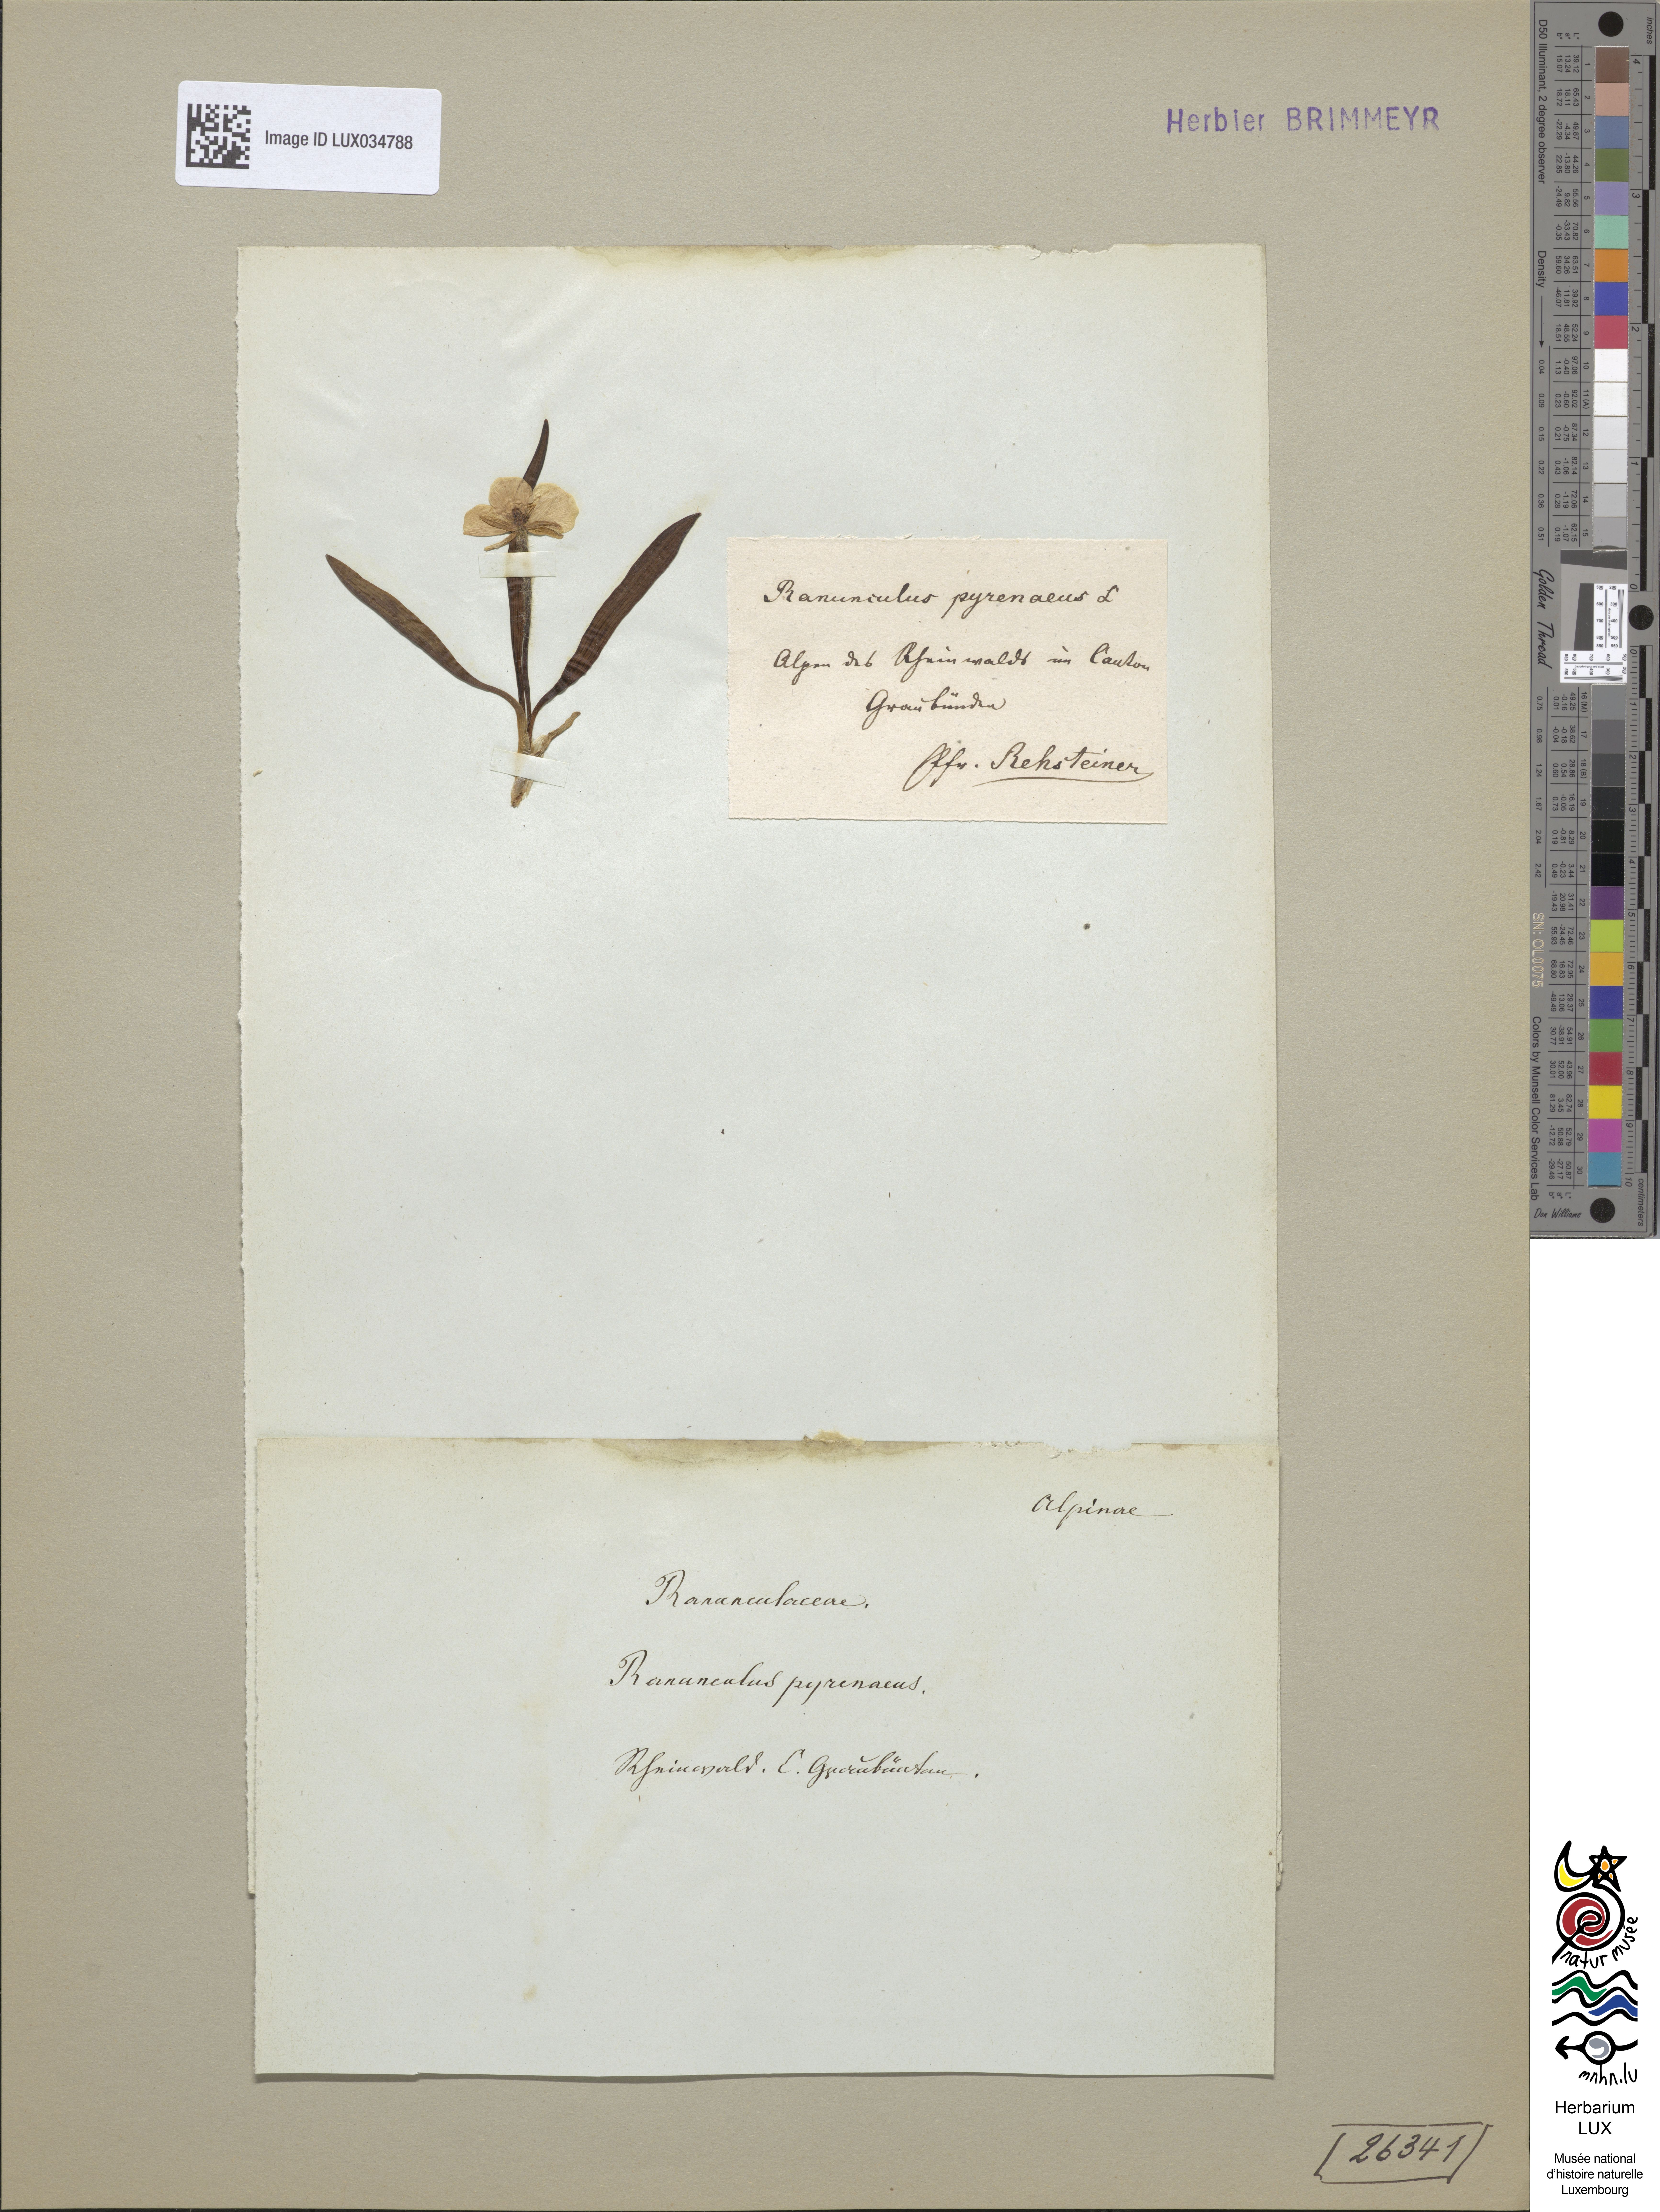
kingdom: Plantae
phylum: Tracheophyta
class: Magnoliopsida
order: Ranunculales
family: Ranunculaceae
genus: Ranunculus
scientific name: Ranunculus pyrenaeus
